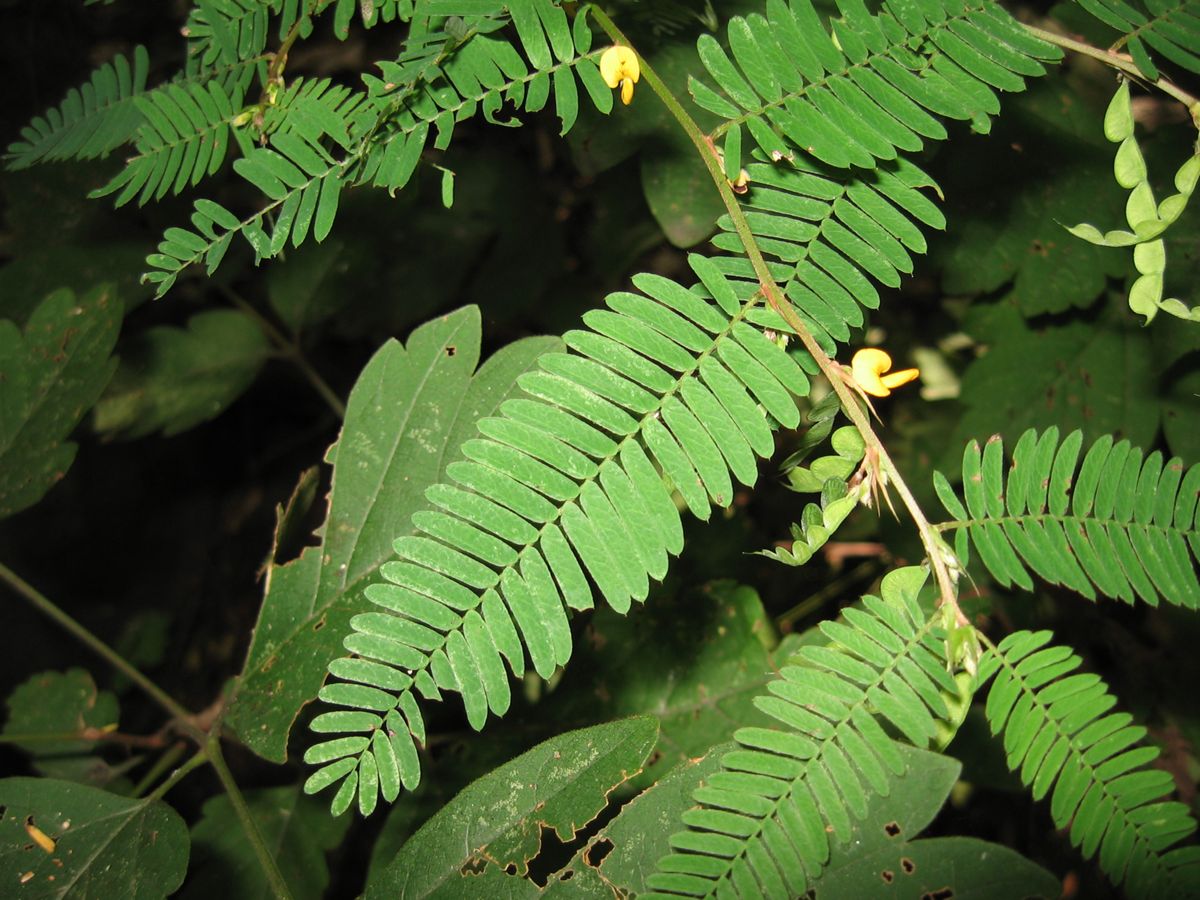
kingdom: Plantae
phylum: Tracheophyta
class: Magnoliopsida
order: Fabales
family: Fabaceae
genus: Ctenodon
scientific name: Ctenodon fascicularis
